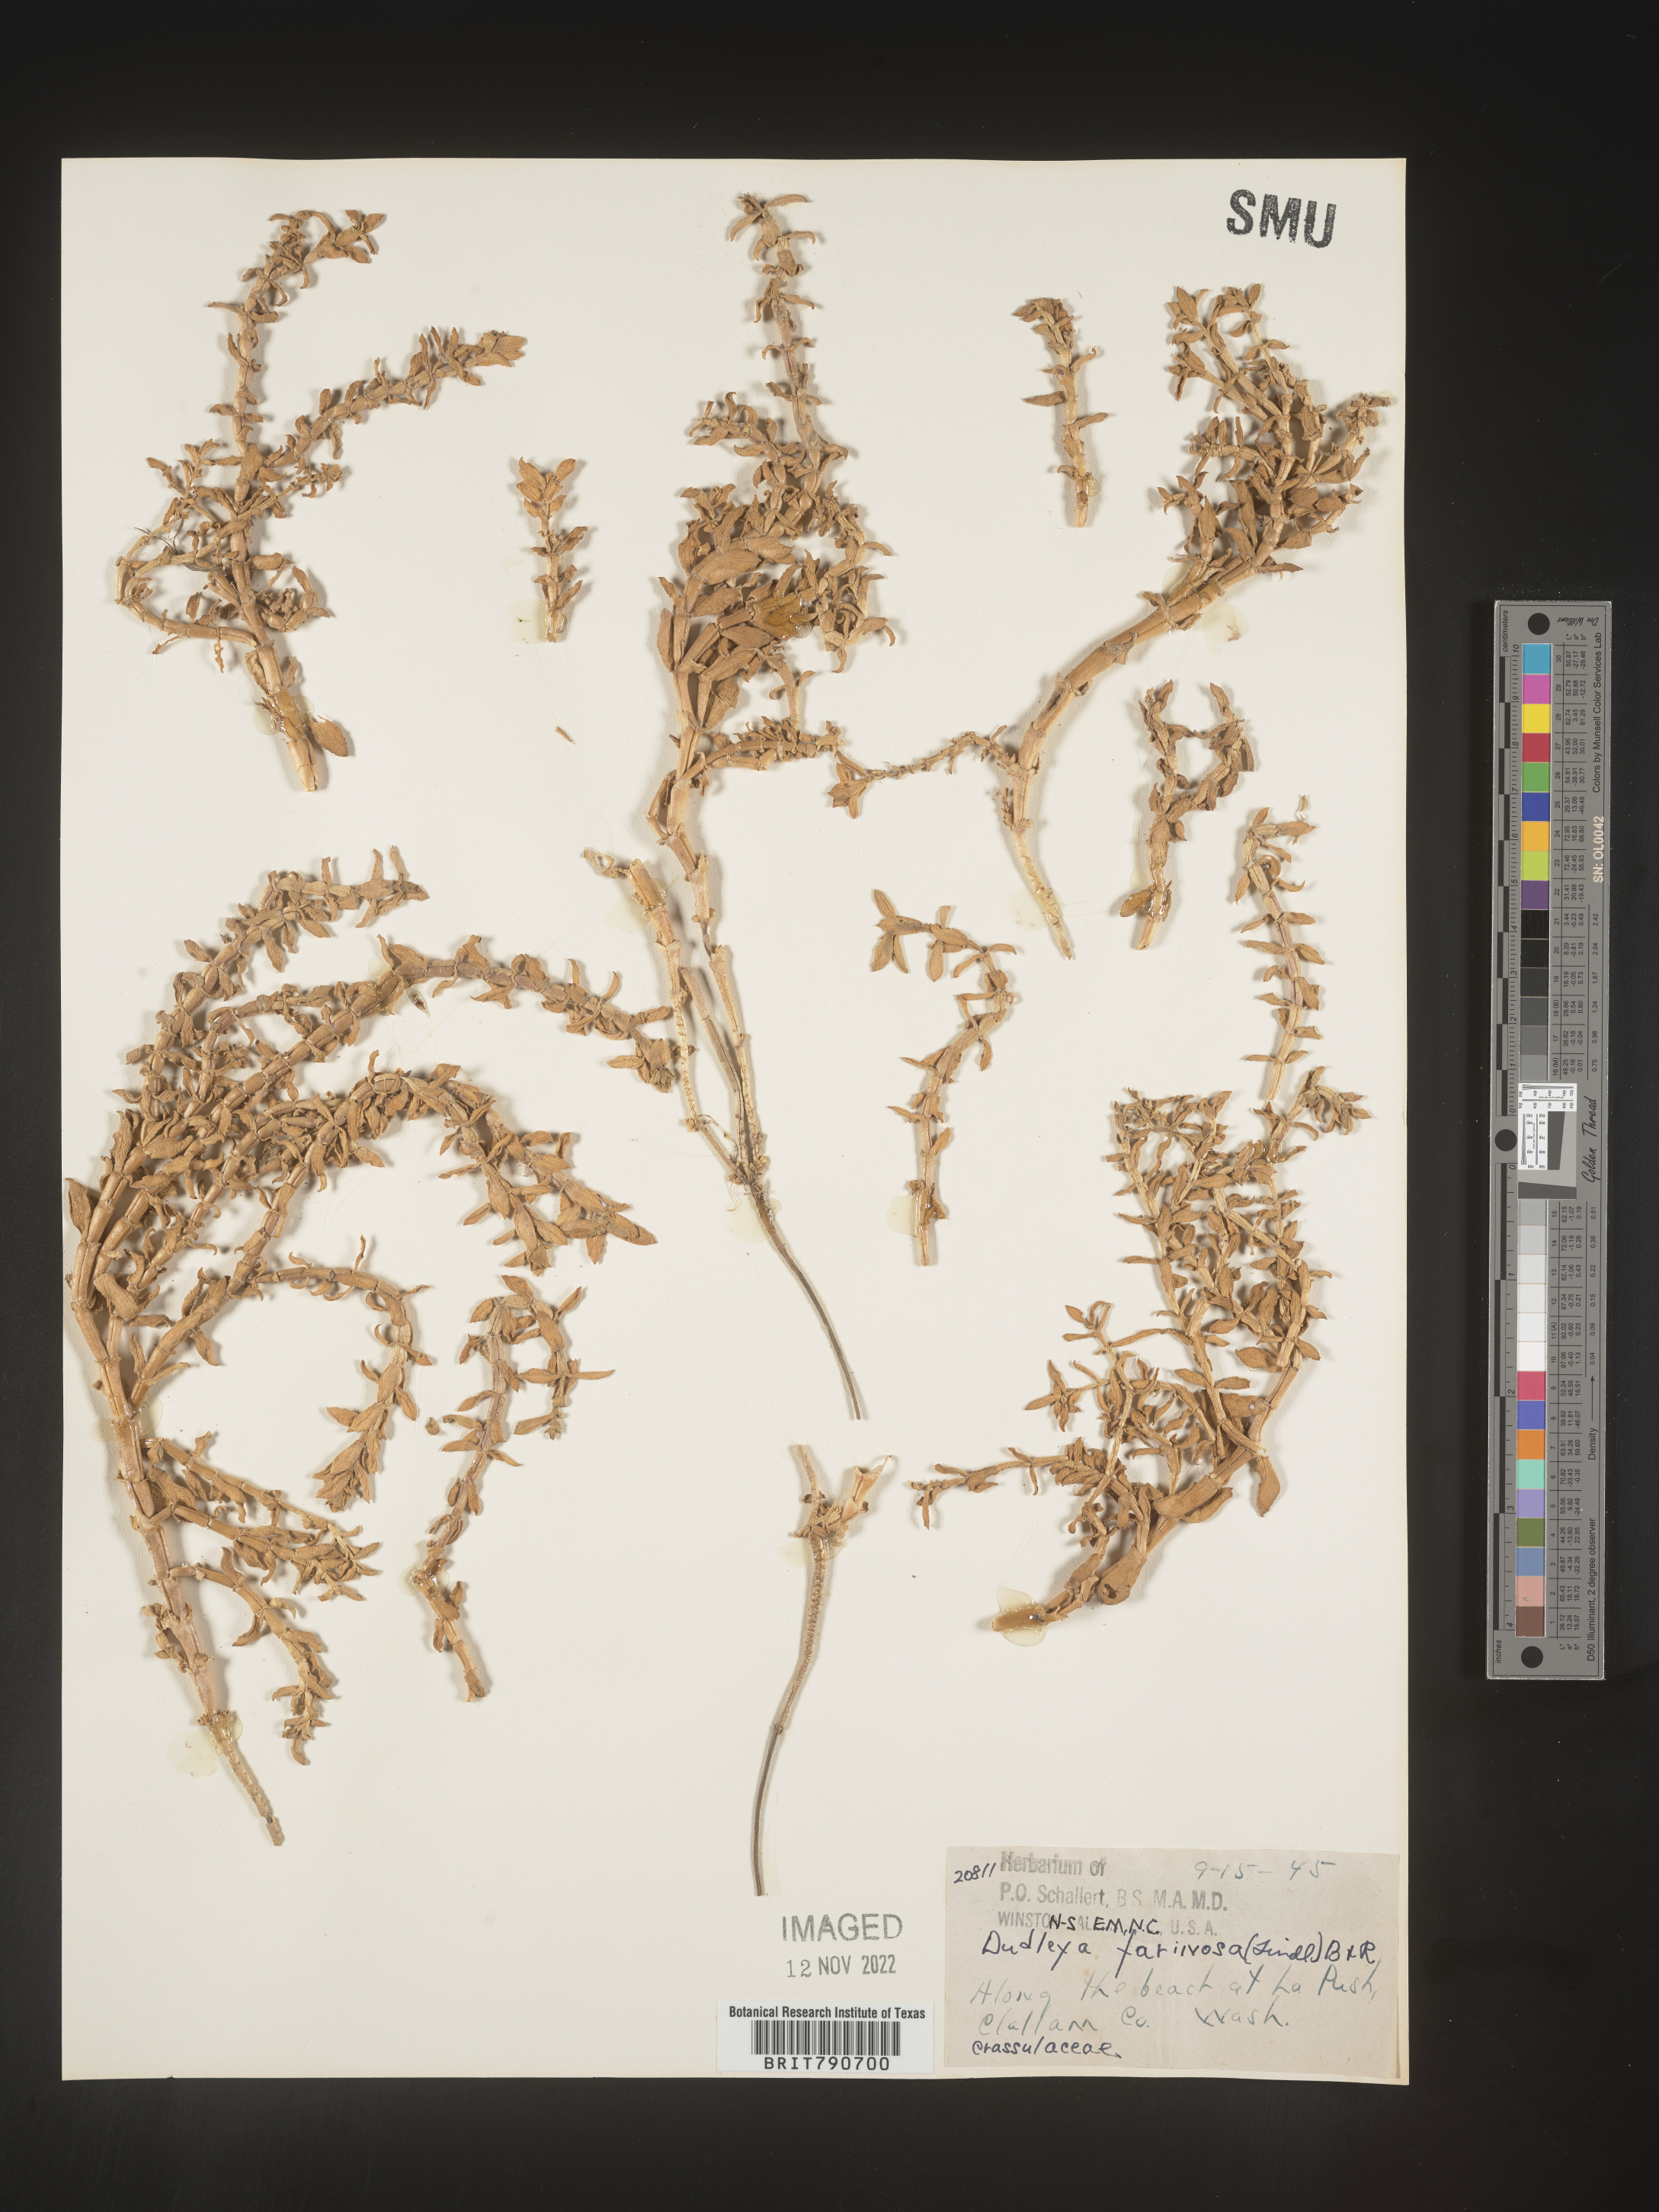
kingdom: Plantae
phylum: Tracheophyta
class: Magnoliopsida
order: Malvales
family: Malvaceae
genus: Clappertonia
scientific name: Clappertonia
